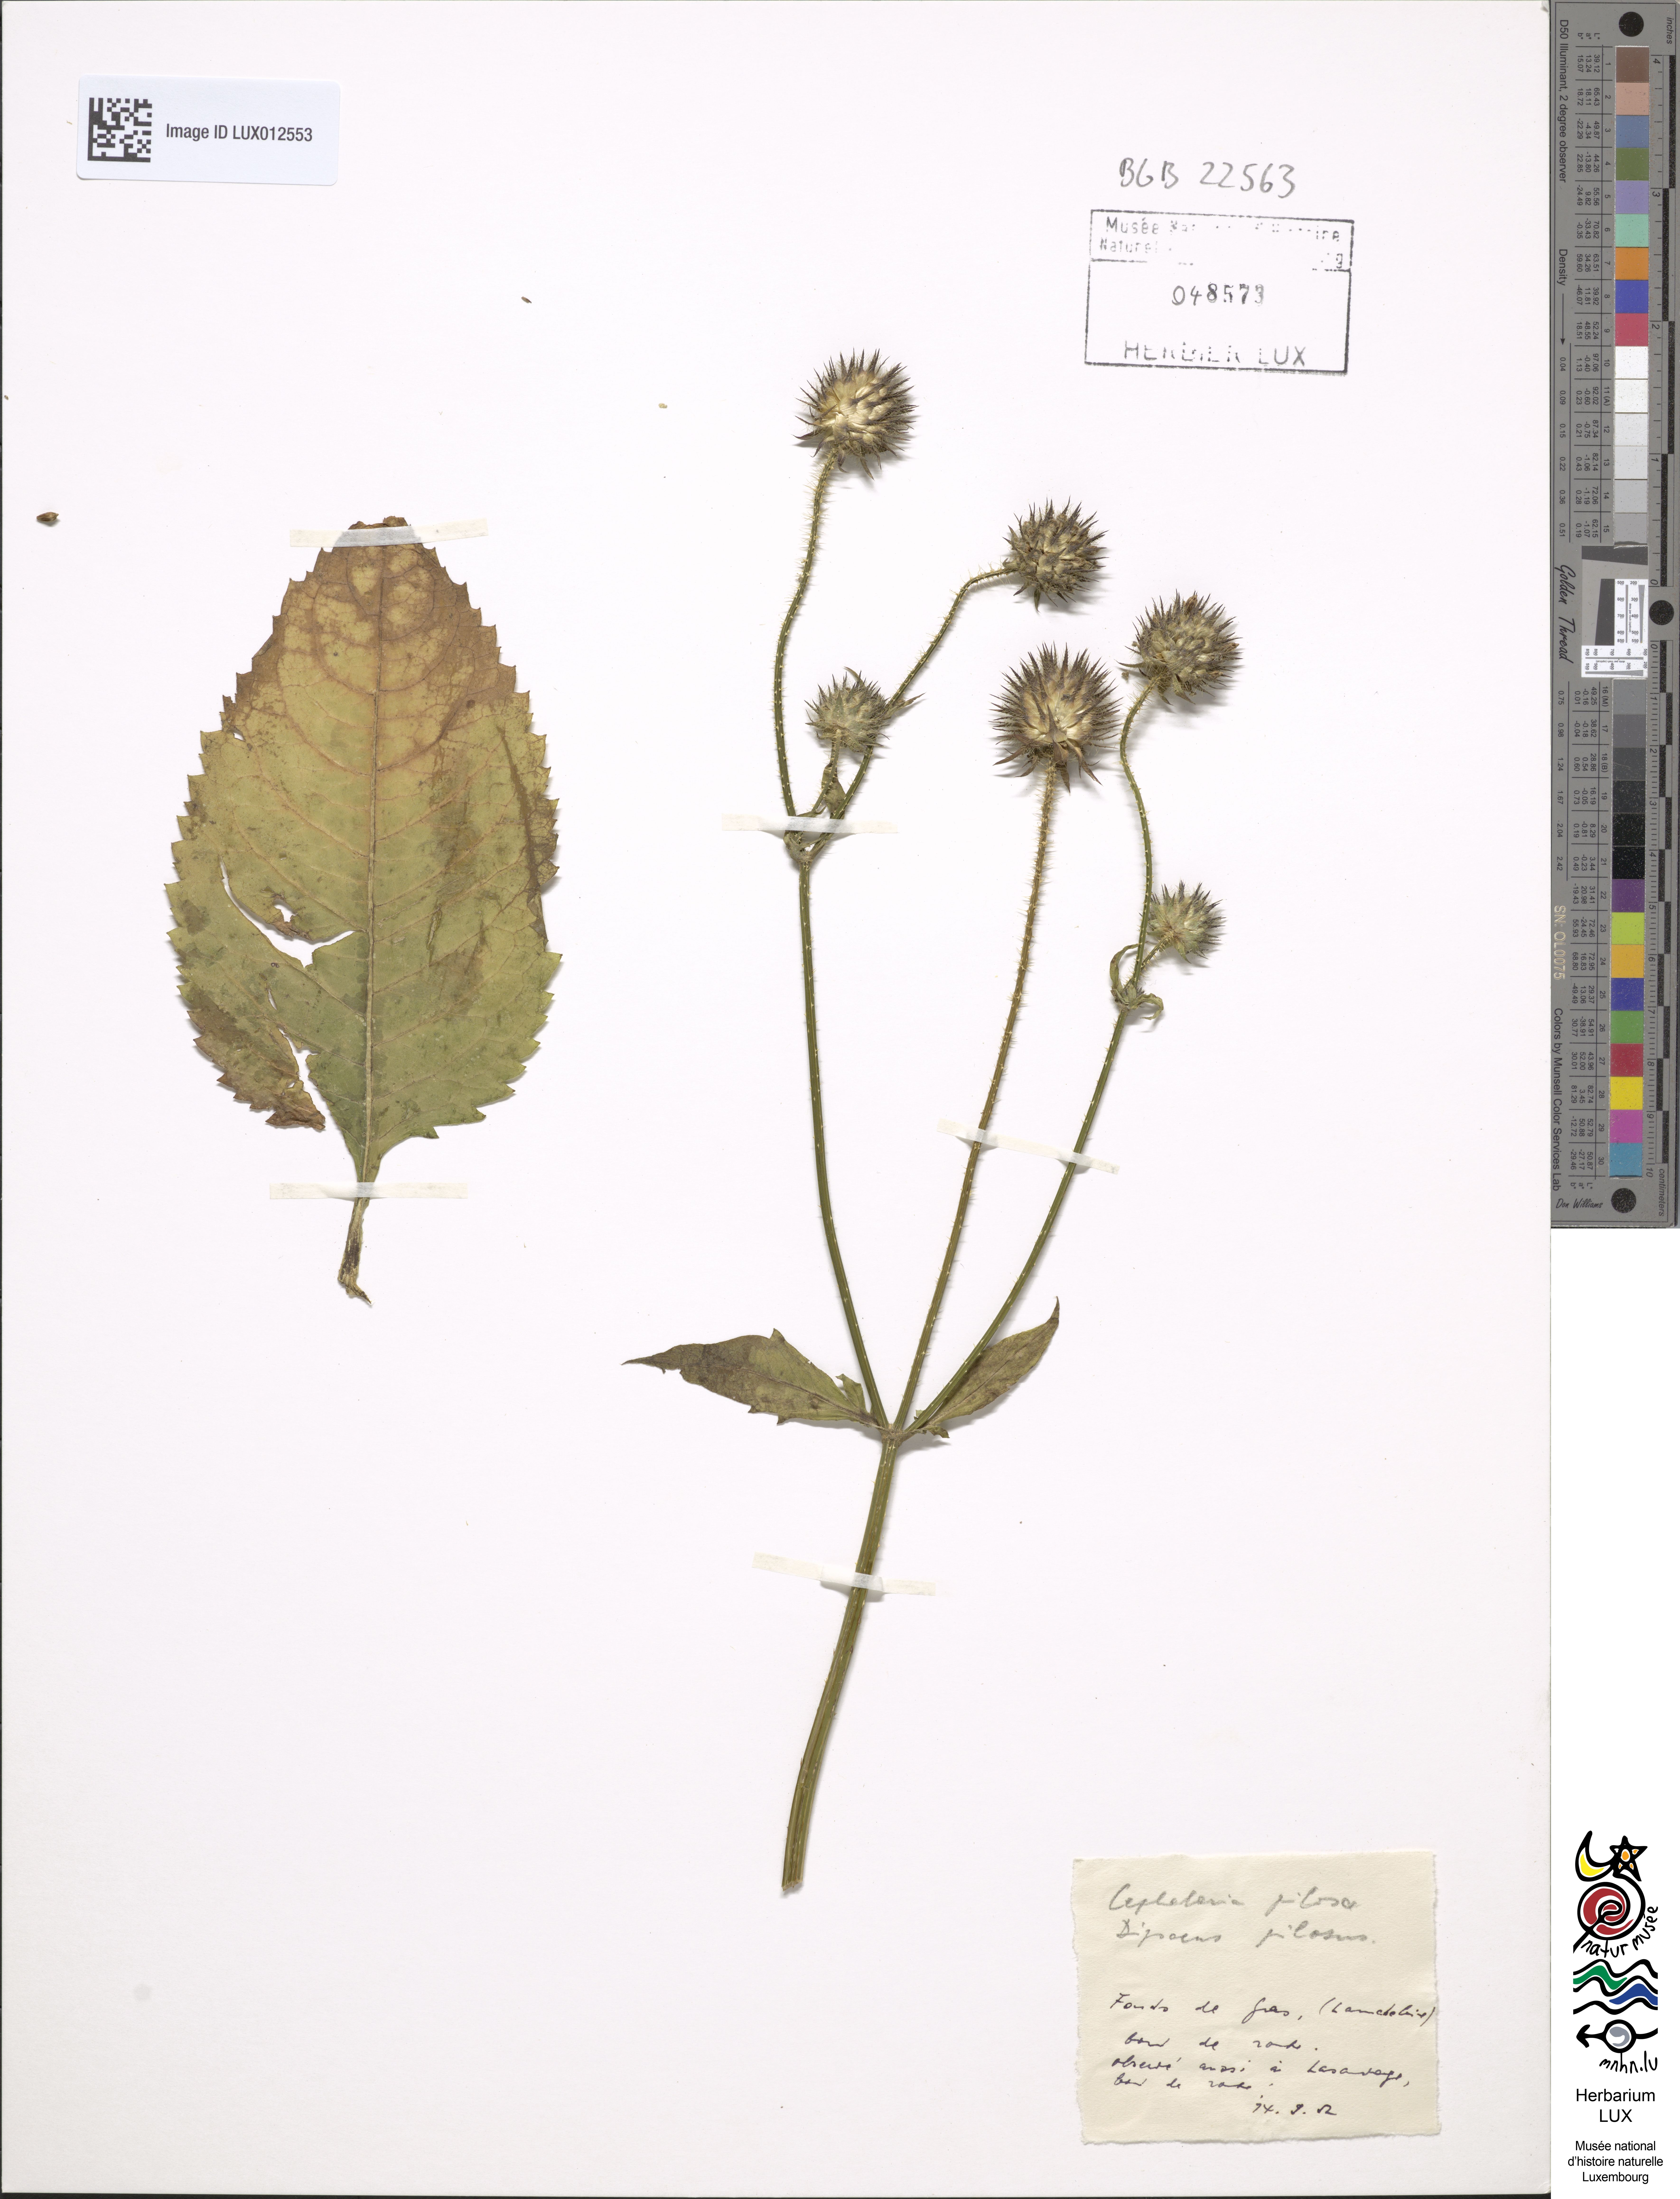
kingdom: Plantae
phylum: Tracheophyta
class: Magnoliopsida
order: Dipsacales
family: Caprifoliaceae
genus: Dipsacus
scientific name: Dipsacus pilosus
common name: Small teasel
